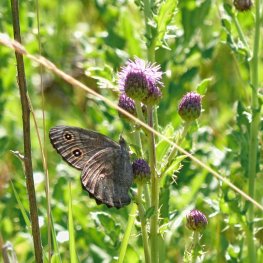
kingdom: Animalia
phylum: Arthropoda
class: Insecta
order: Lepidoptera
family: Nymphalidae
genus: Cercyonis
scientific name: Cercyonis pegala
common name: Common Wood-Nymph
